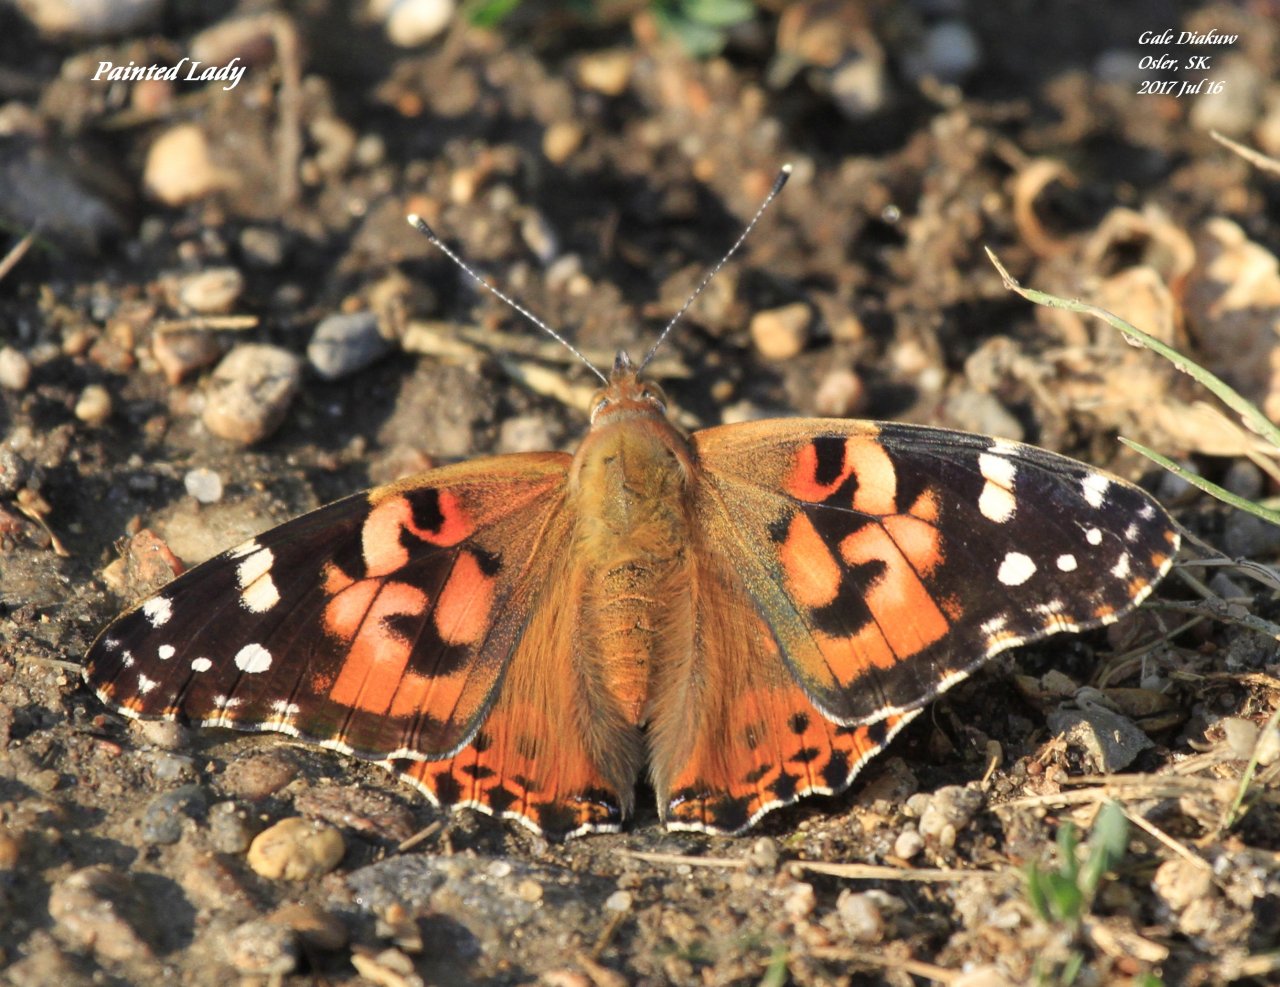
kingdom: Animalia
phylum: Arthropoda
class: Insecta
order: Lepidoptera
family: Nymphalidae
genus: Vanessa
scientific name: Vanessa cardui
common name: Painted Lady
